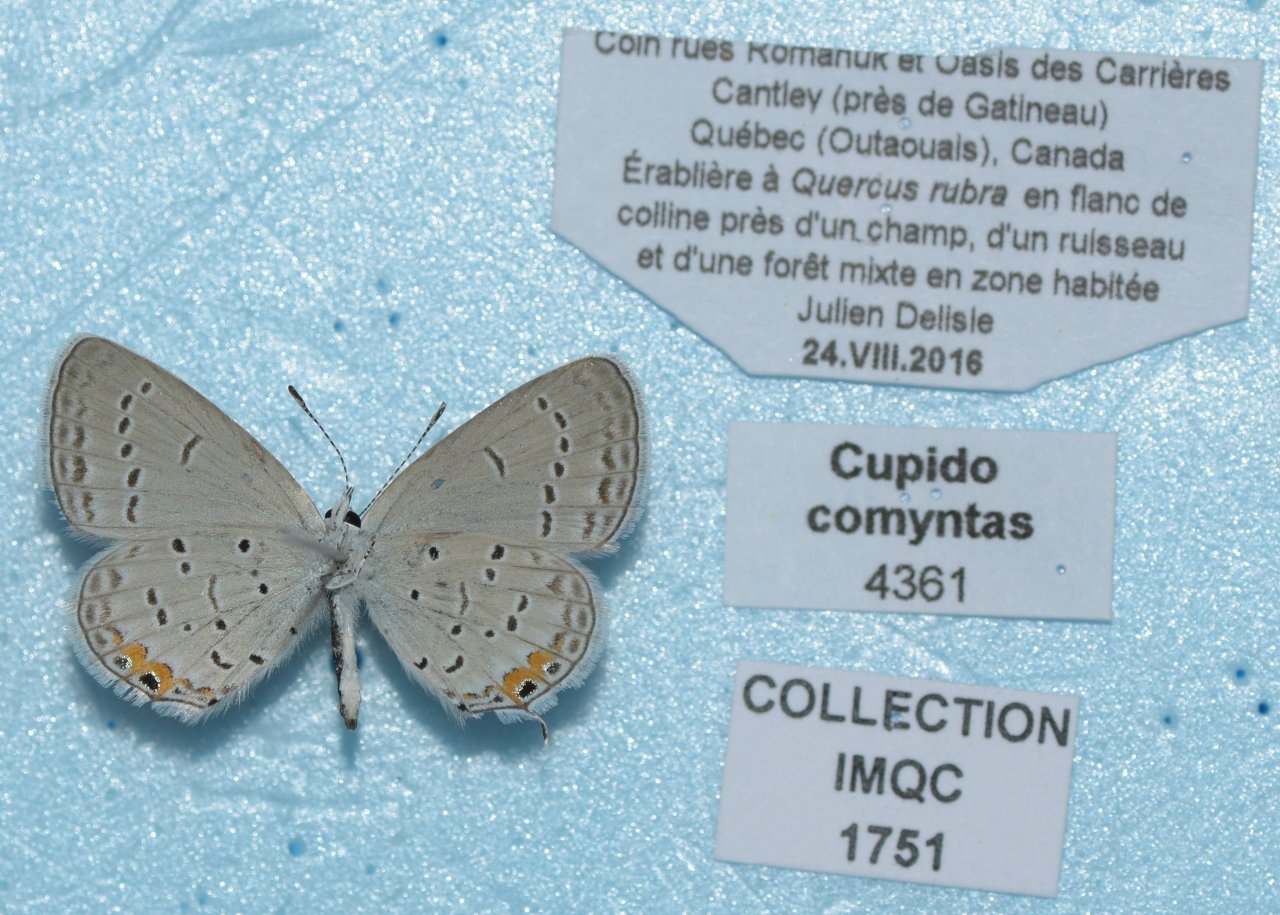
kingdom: Animalia
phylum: Arthropoda
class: Insecta
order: Lepidoptera
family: Lycaenidae
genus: Elkalyce
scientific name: Elkalyce comyntas
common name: Eastern Tailed-Blue
